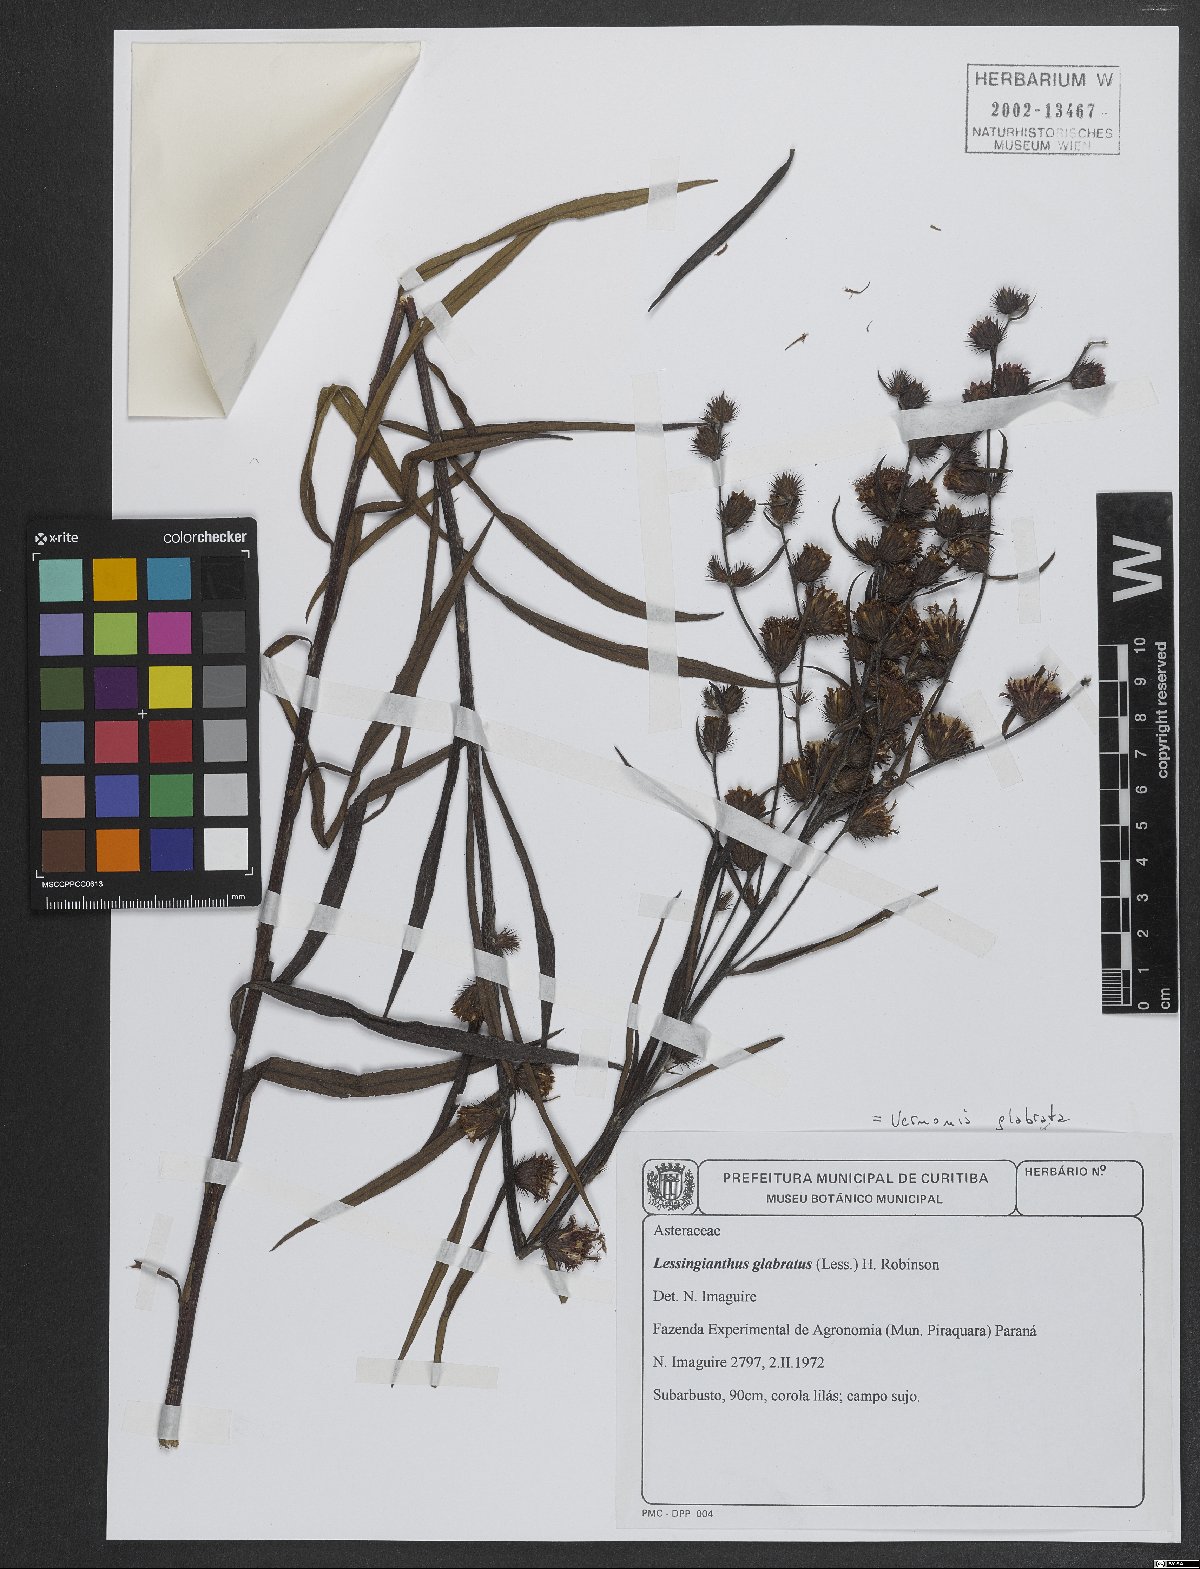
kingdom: Plantae
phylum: Tracheophyta
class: Magnoliopsida
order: Asterales
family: Asteraceae
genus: Lessingianthus
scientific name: Lessingianthus glabratus
